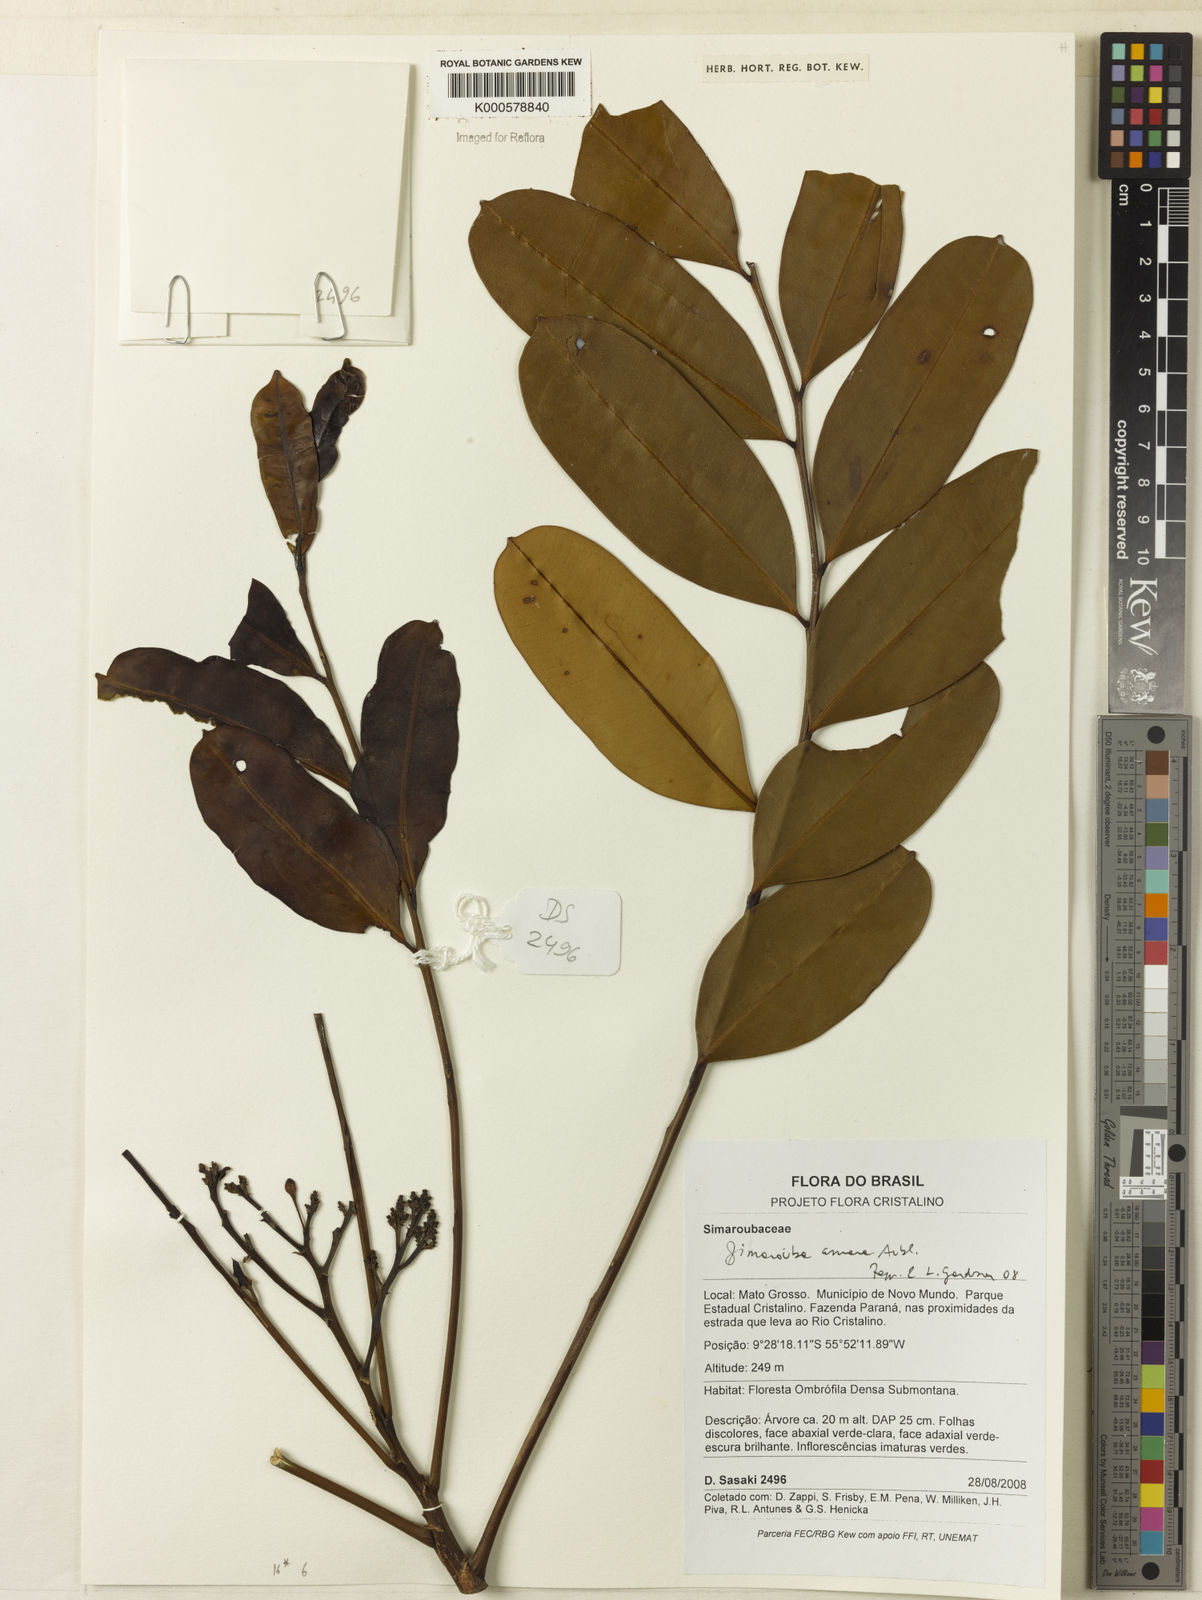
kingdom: Plantae
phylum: Tracheophyta
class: Magnoliopsida
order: Sapindales
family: Simaroubaceae
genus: Simarouba
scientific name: Simarouba amara
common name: Bitterwood
